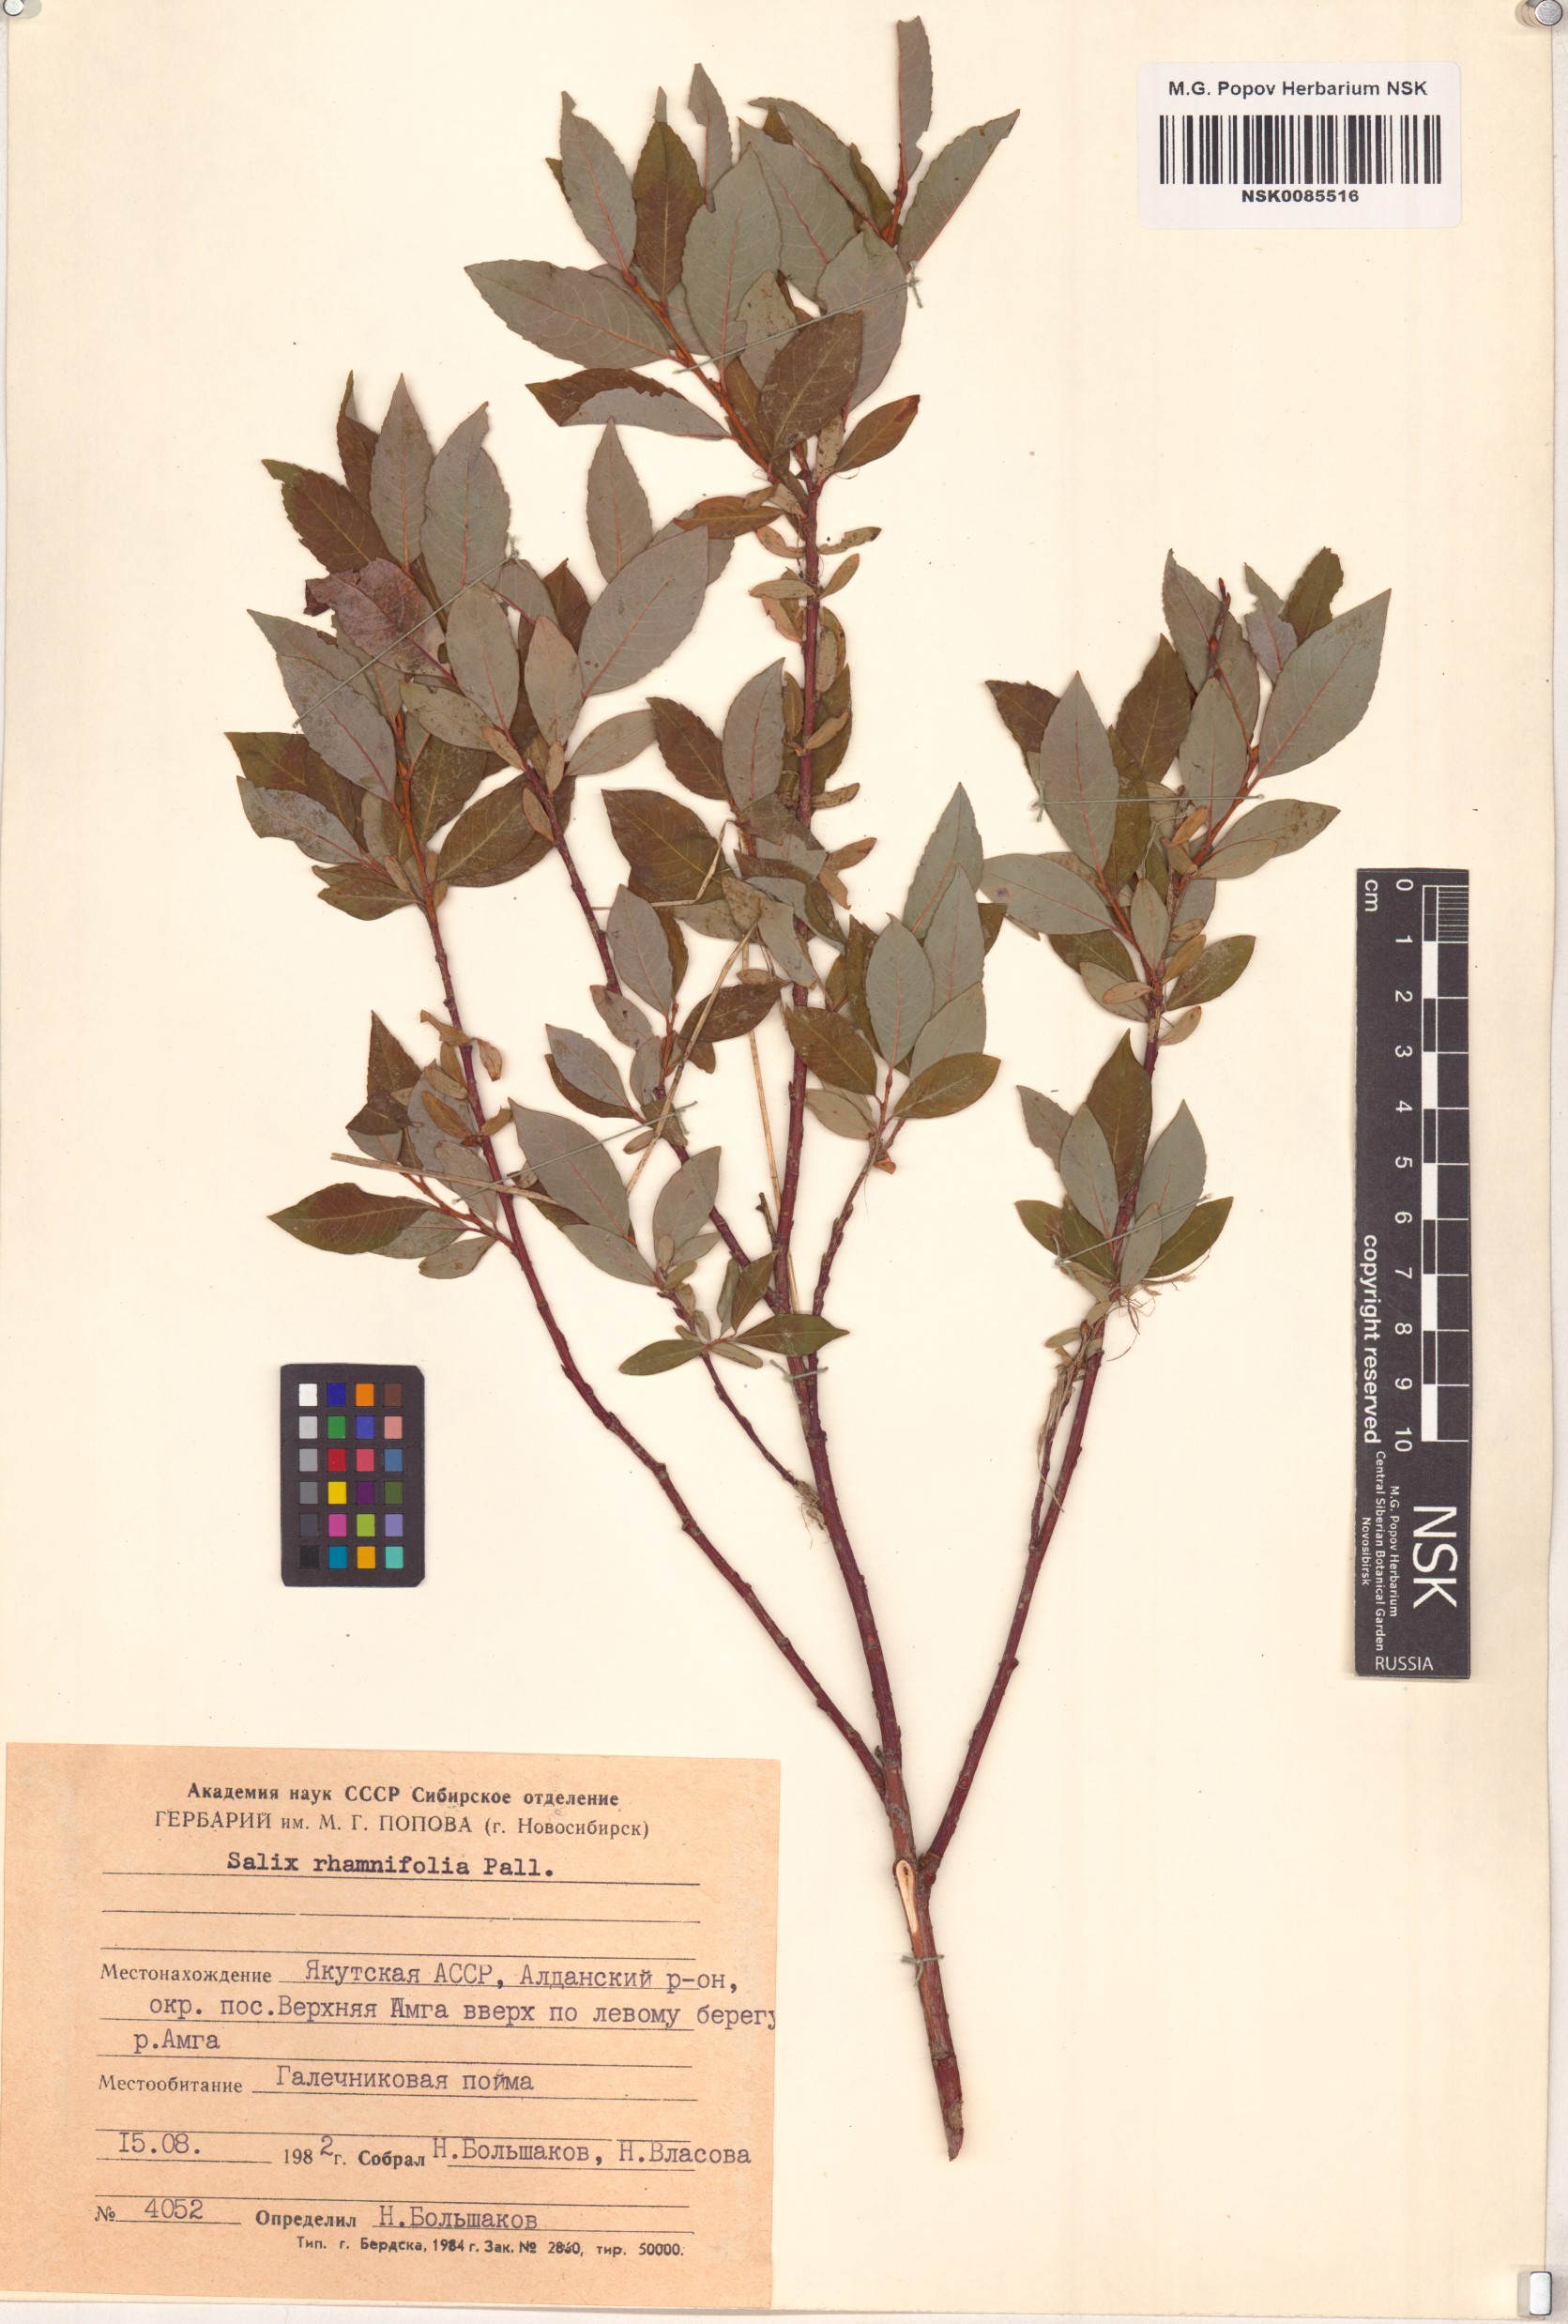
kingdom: Plantae
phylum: Tracheophyta
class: Magnoliopsida
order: Malpighiales
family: Salicaceae
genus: Salix
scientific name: Salix rhamnifolia
